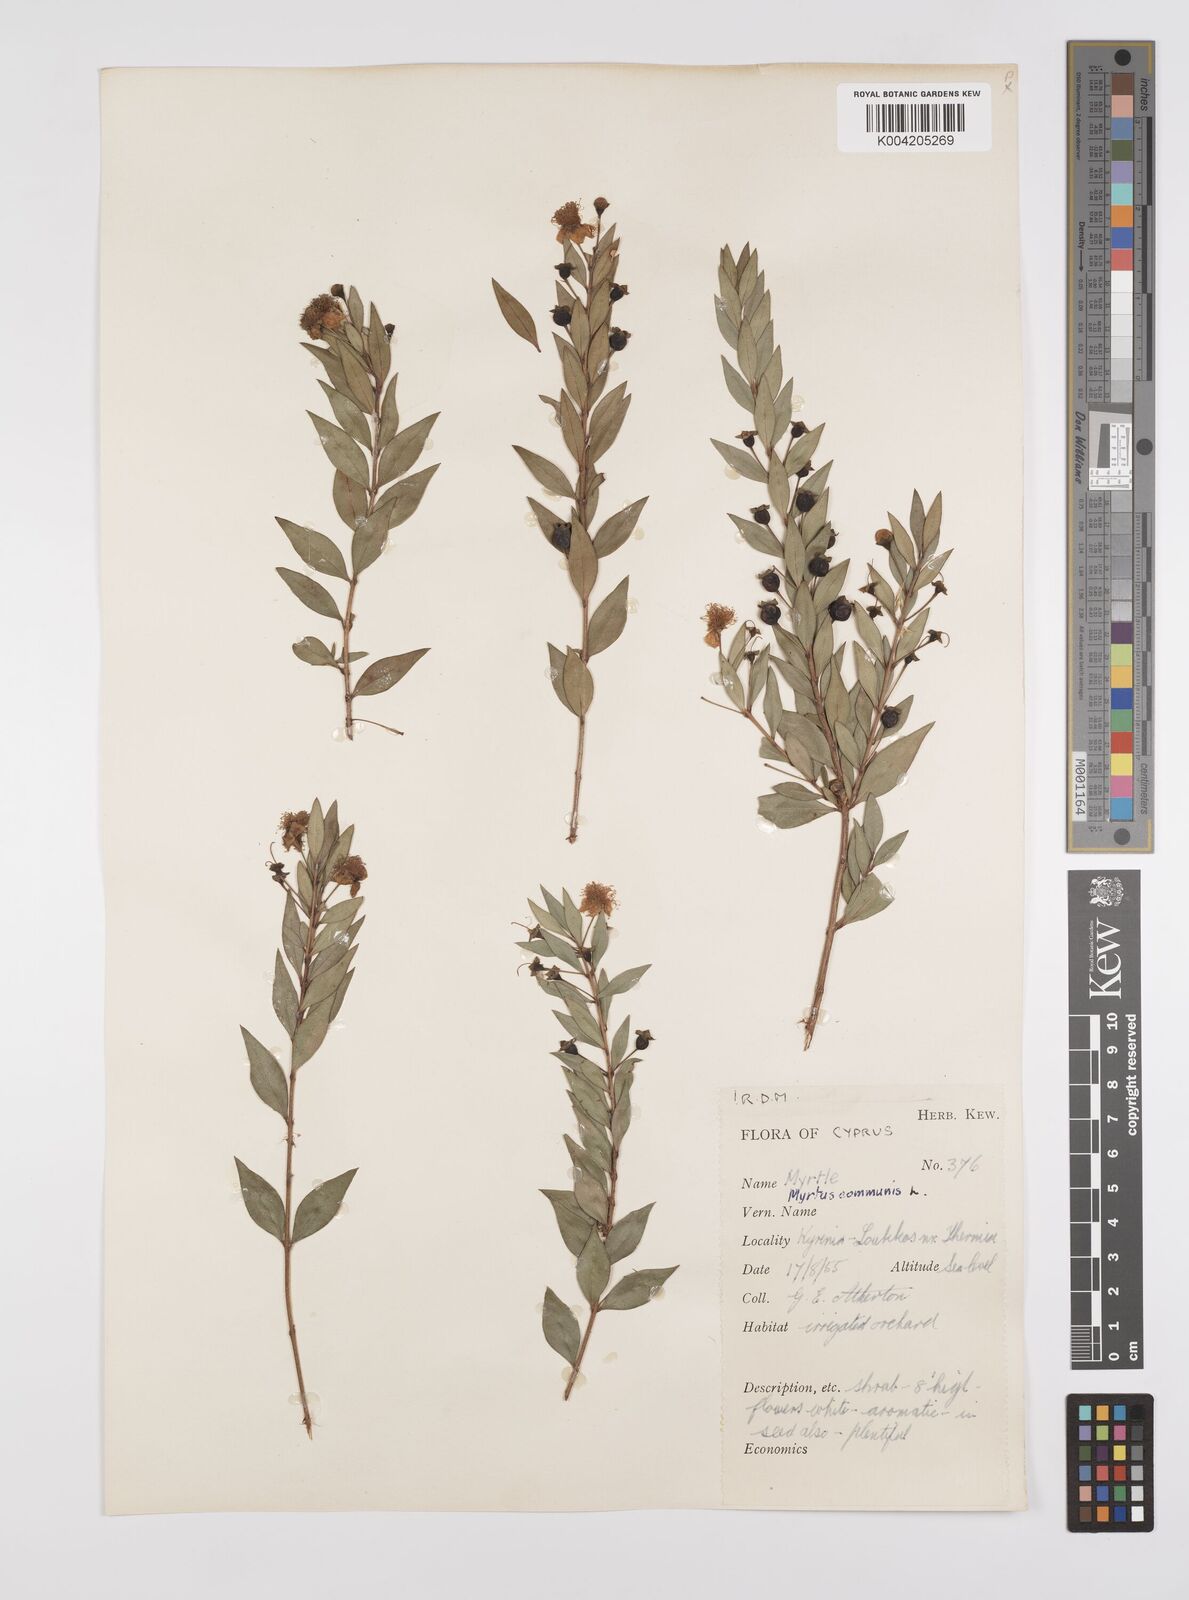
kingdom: Plantae
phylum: Tracheophyta
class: Magnoliopsida
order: Myrtales
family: Myrtaceae
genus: Myrtus
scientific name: Myrtus communis
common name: Myrtle
